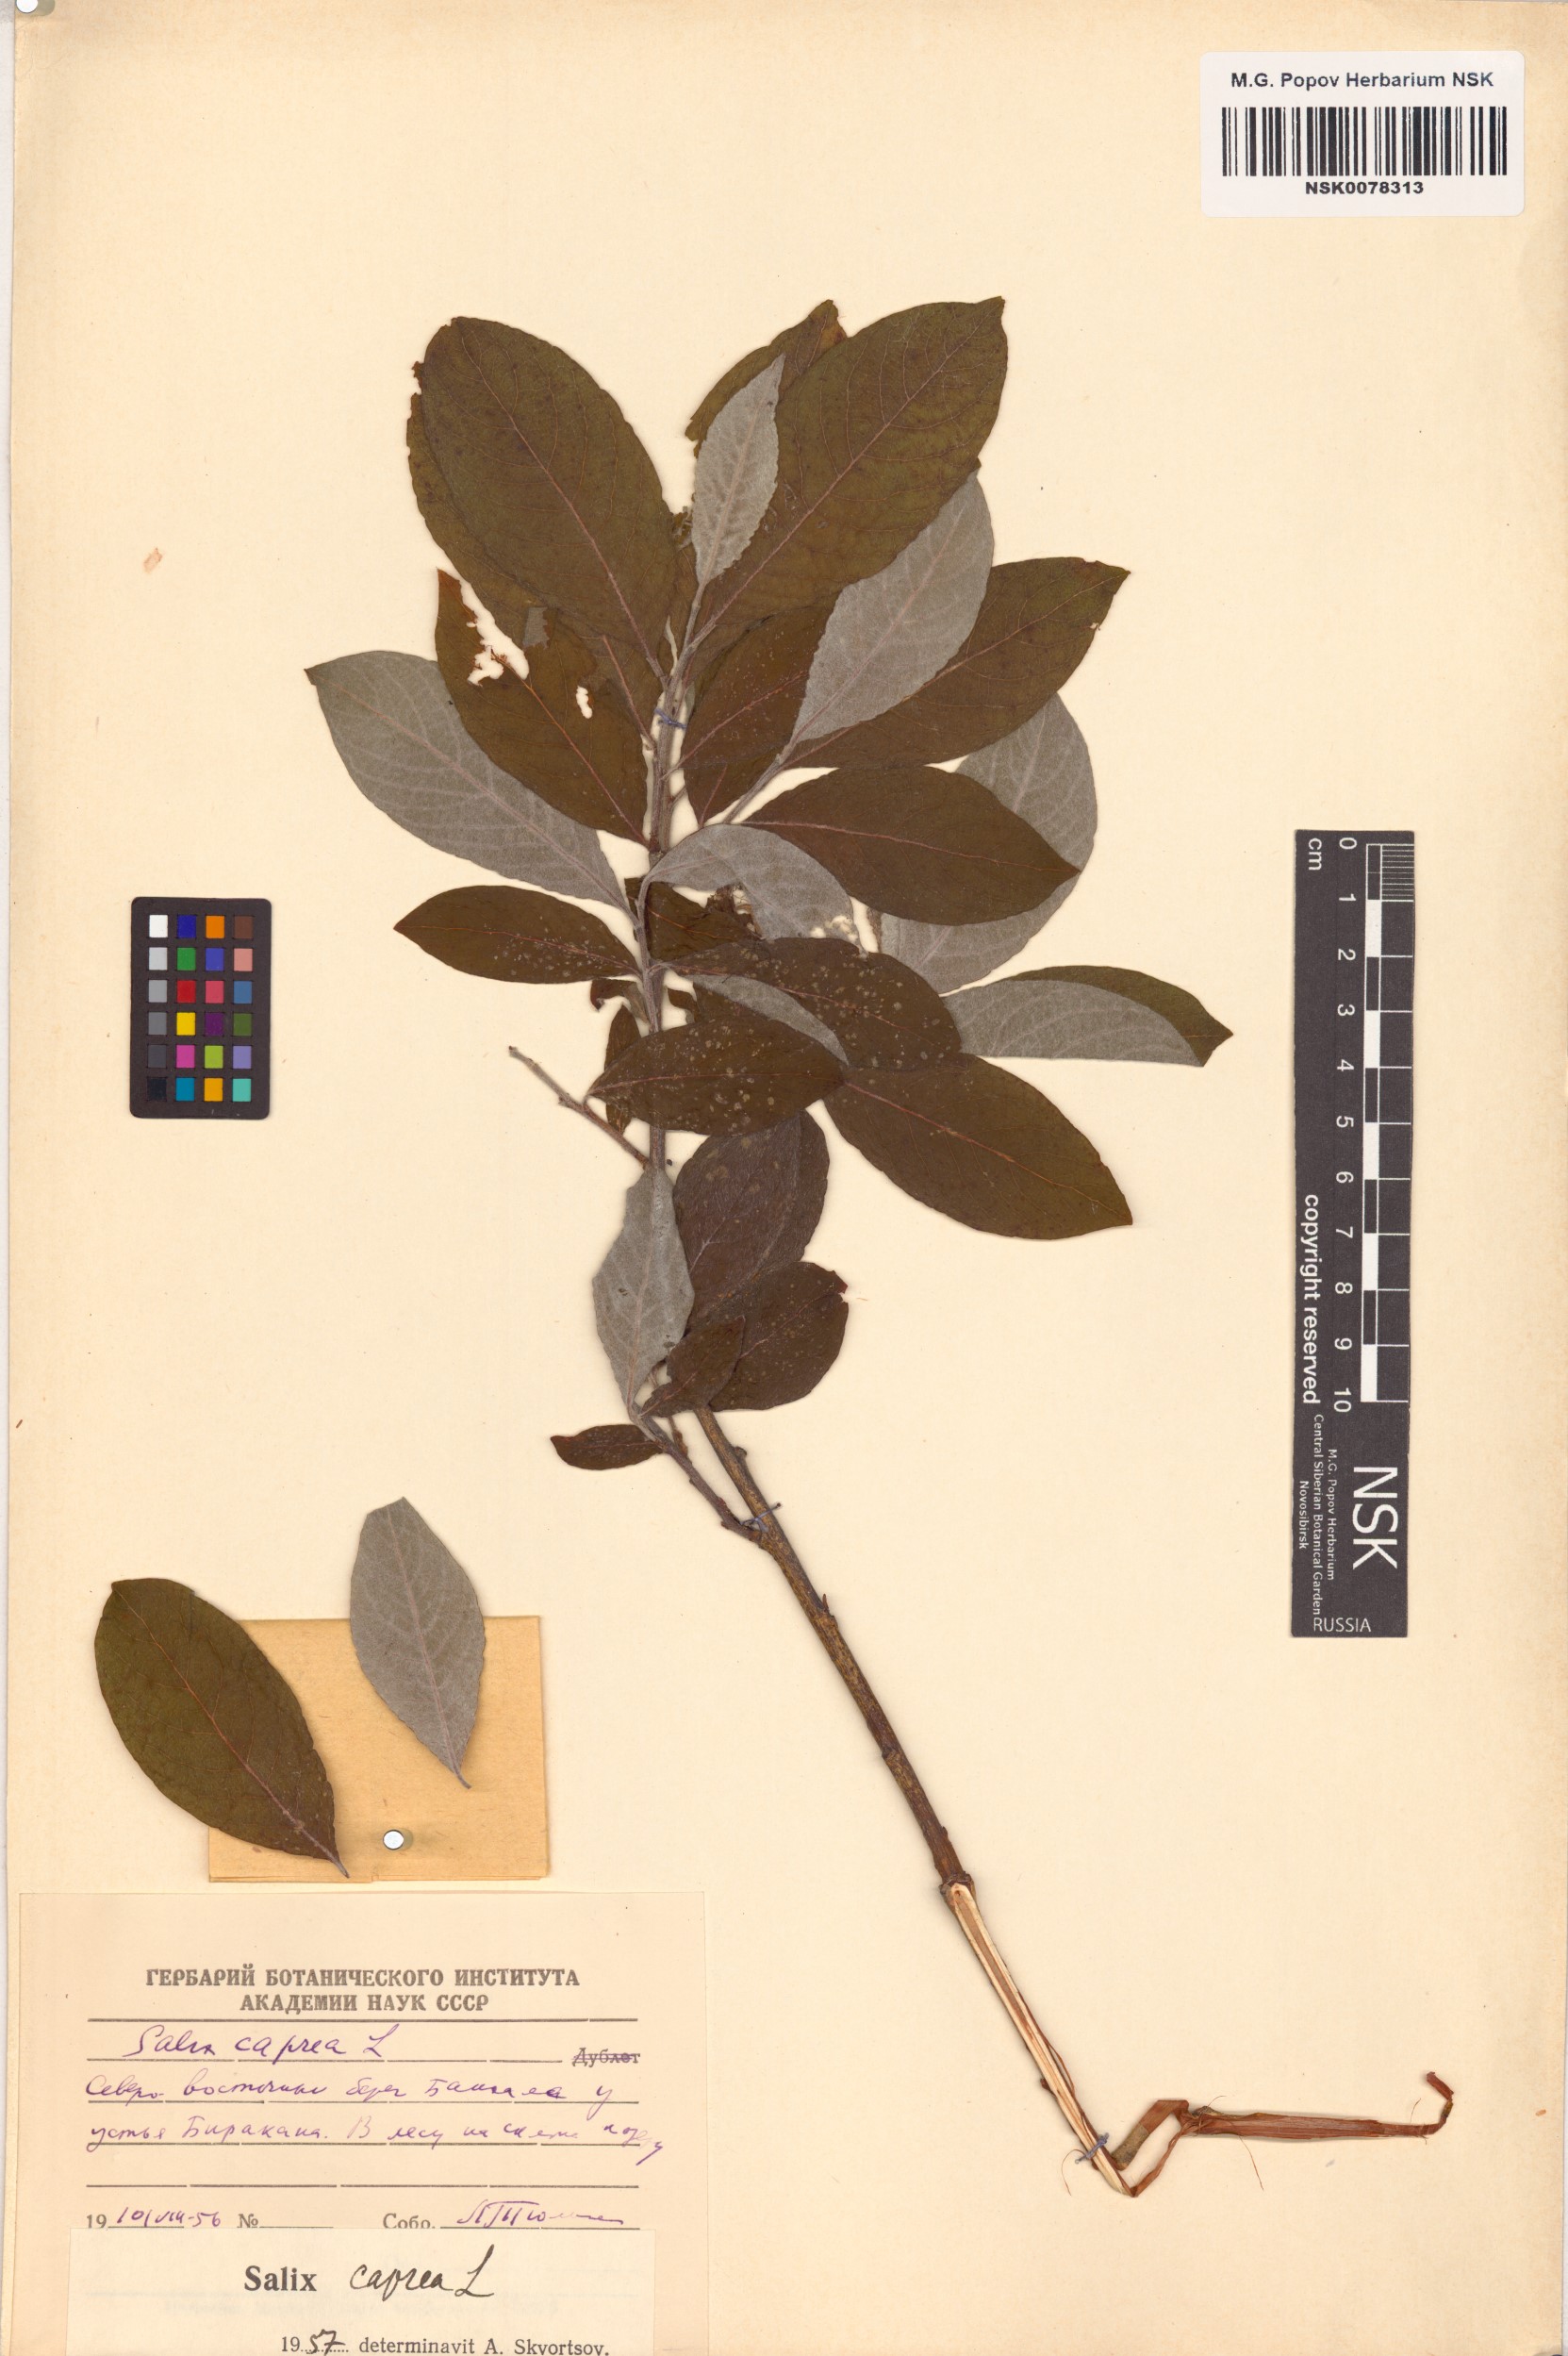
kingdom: Plantae
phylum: Tracheophyta
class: Magnoliopsida
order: Malpighiales
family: Salicaceae
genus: Salix
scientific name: Salix caprea
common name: Goat willow
